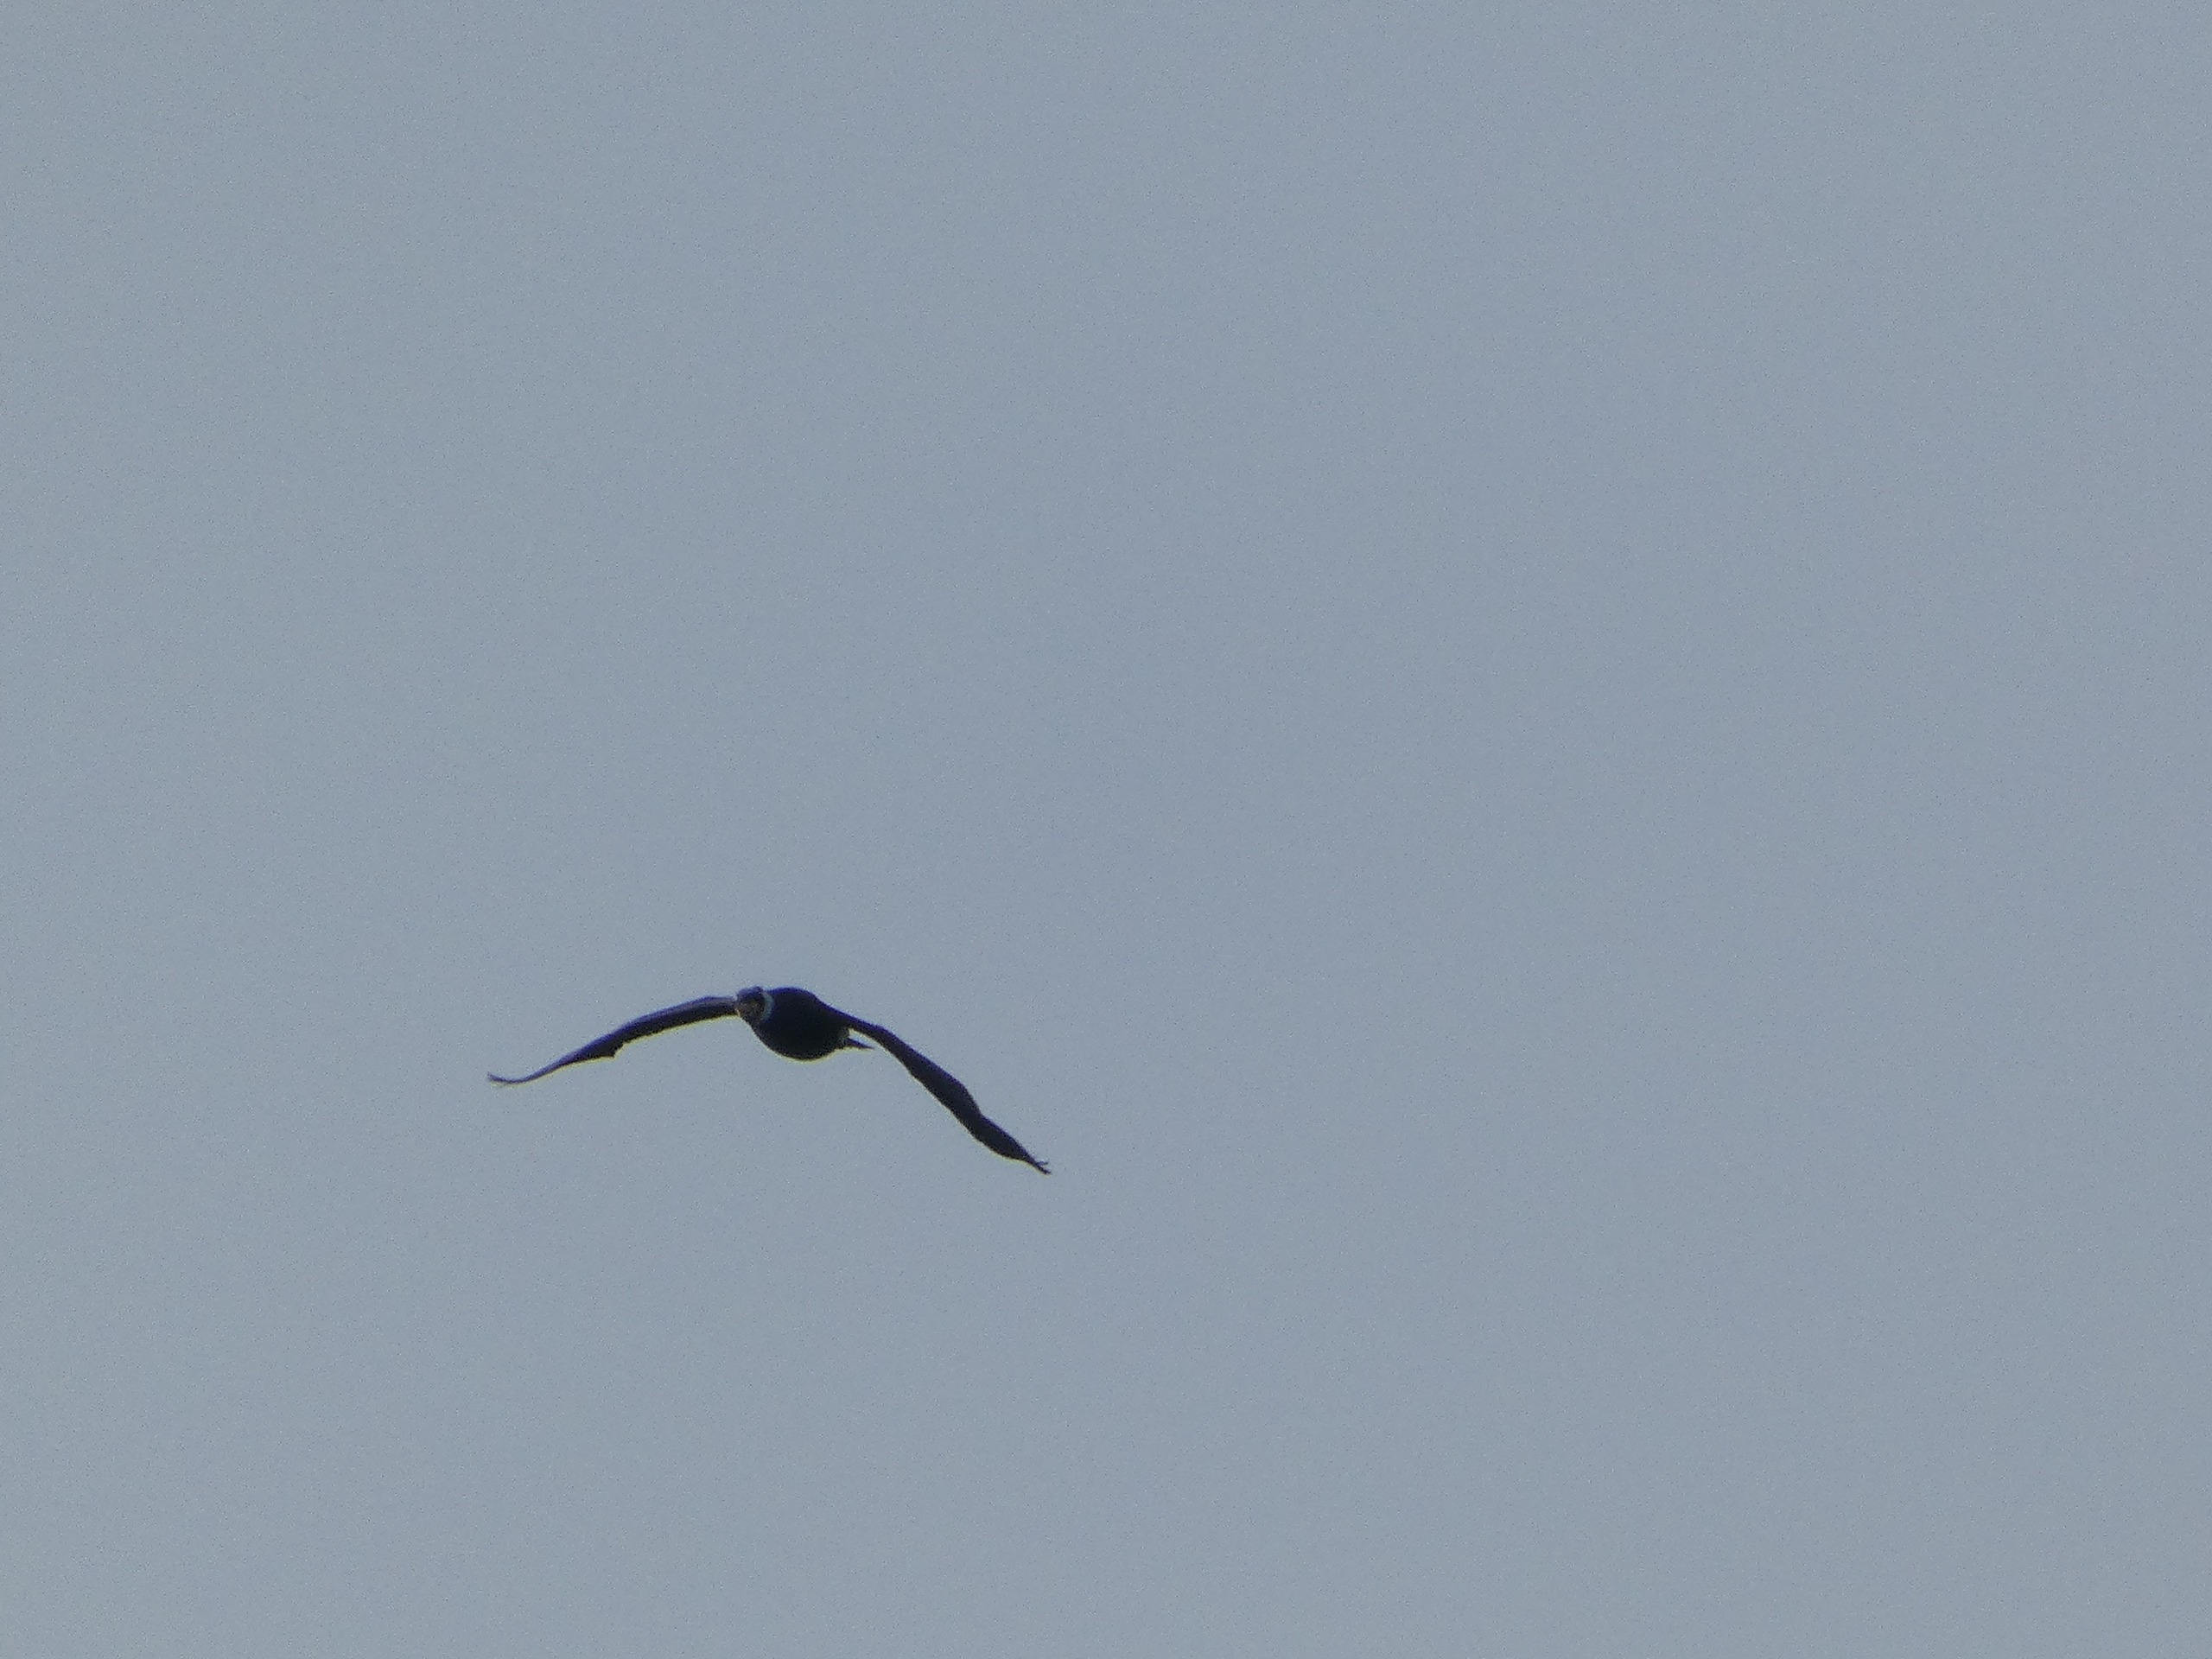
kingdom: Animalia
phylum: Chordata
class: Aves
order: Suliformes
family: Phalacrocoracidae
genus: Phalacrocorax
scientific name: Phalacrocorax carbo
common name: Skarv
